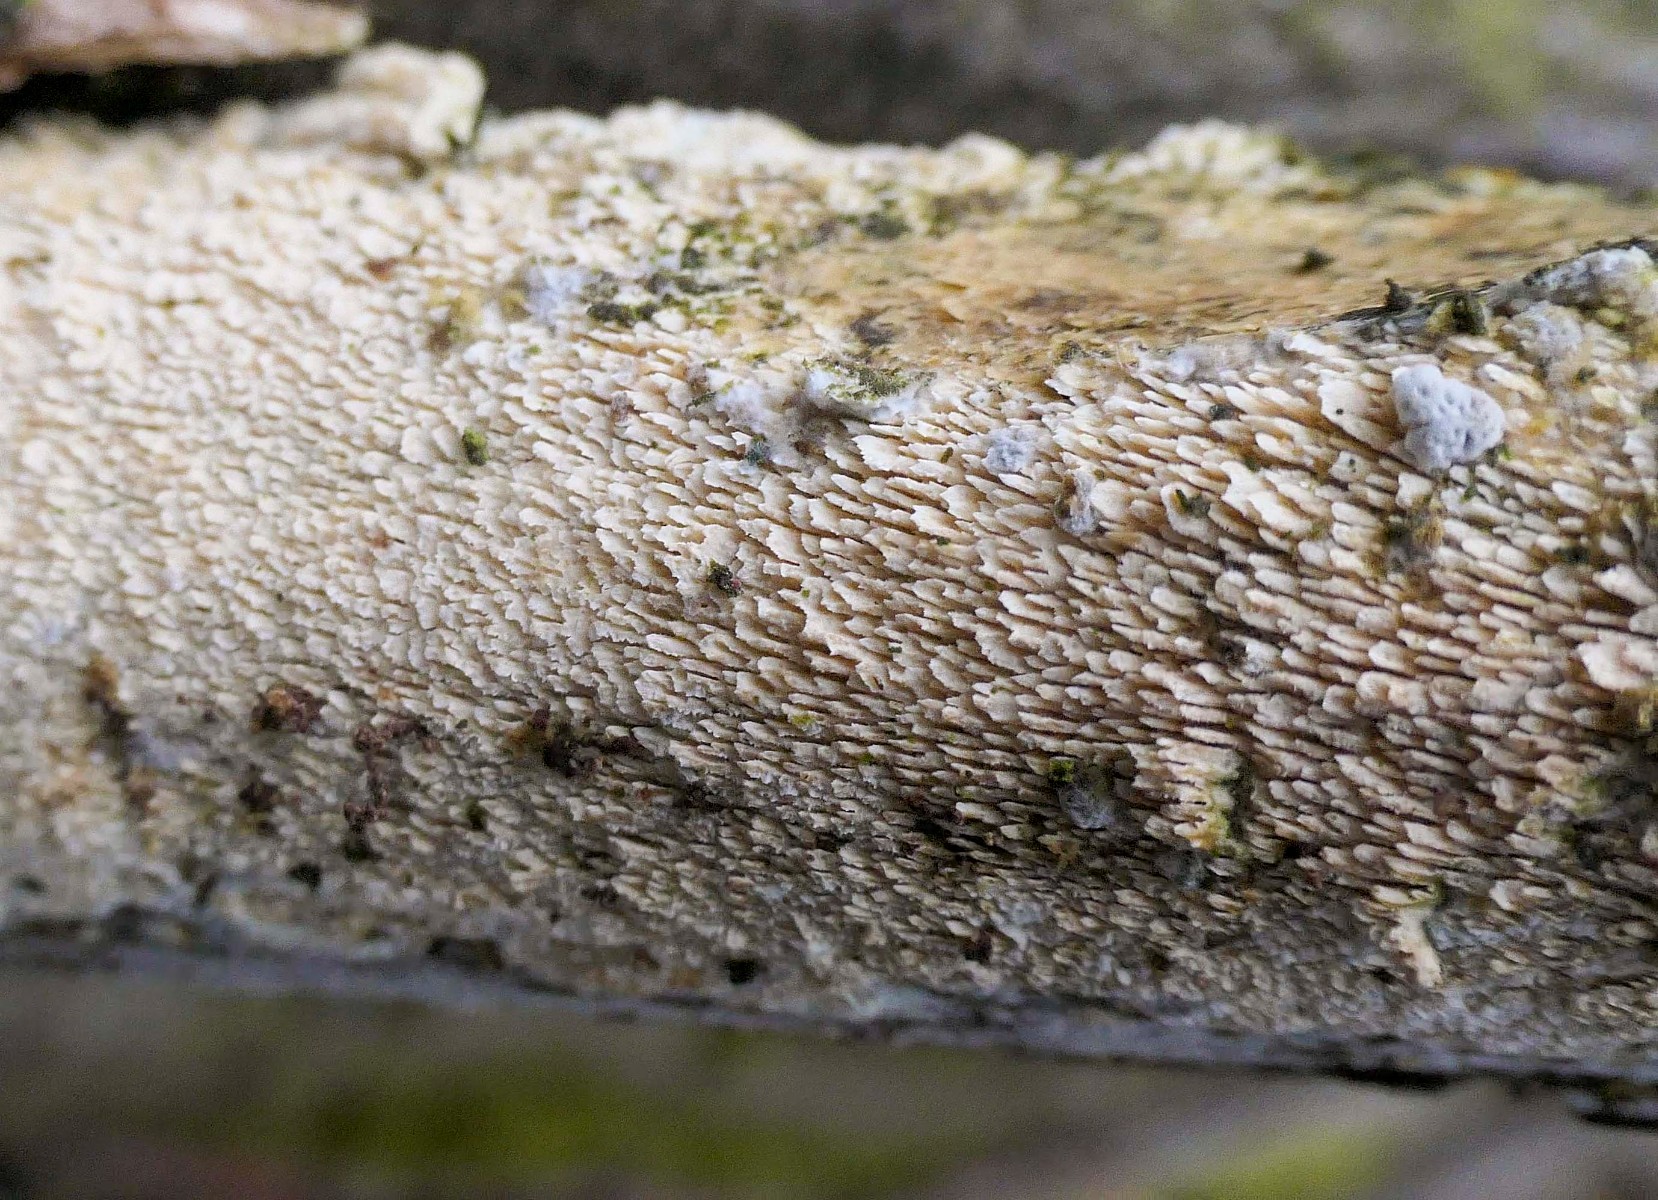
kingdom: Fungi
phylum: Basidiomycota
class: Agaricomycetes
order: Hymenochaetales
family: Schizoporaceae
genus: Schizopora
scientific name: Schizopora paradoxa
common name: hvid tandsvamp
